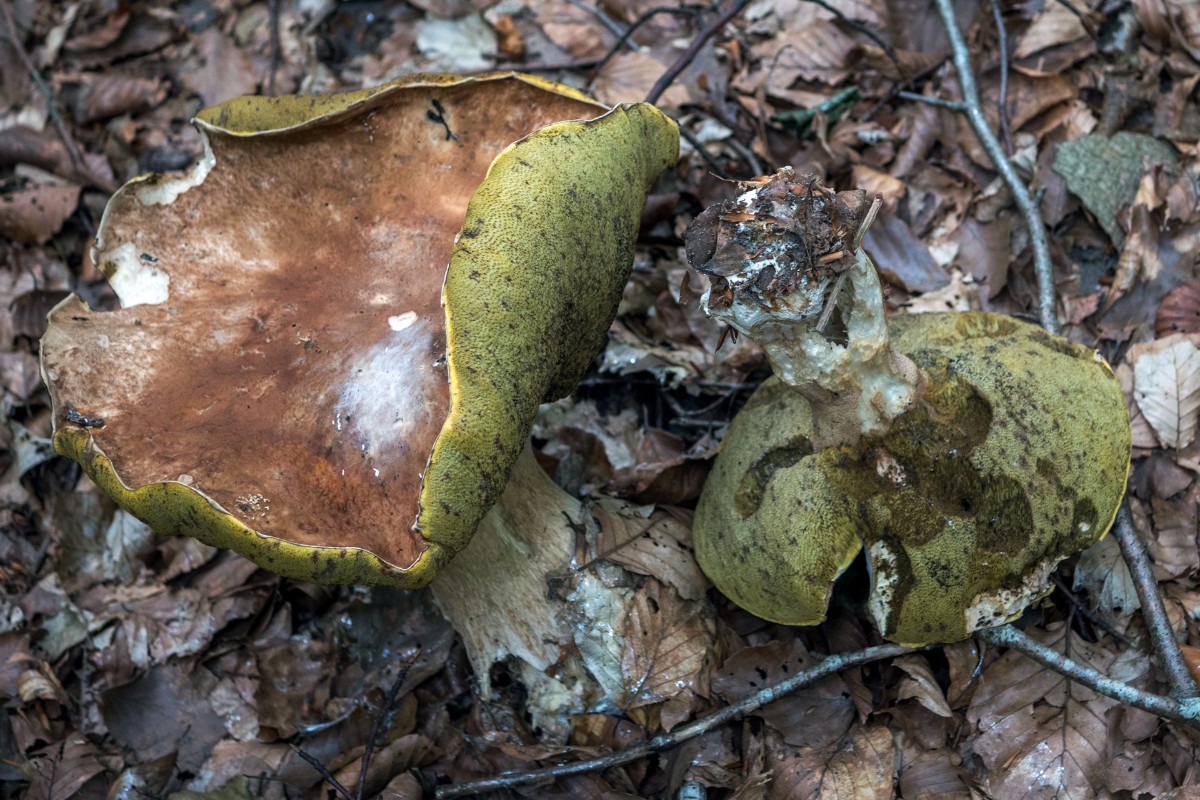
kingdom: Fungi
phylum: Basidiomycota
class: Agaricomycetes
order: Boletales
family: Boletaceae
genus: Boletus
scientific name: Boletus edulis
